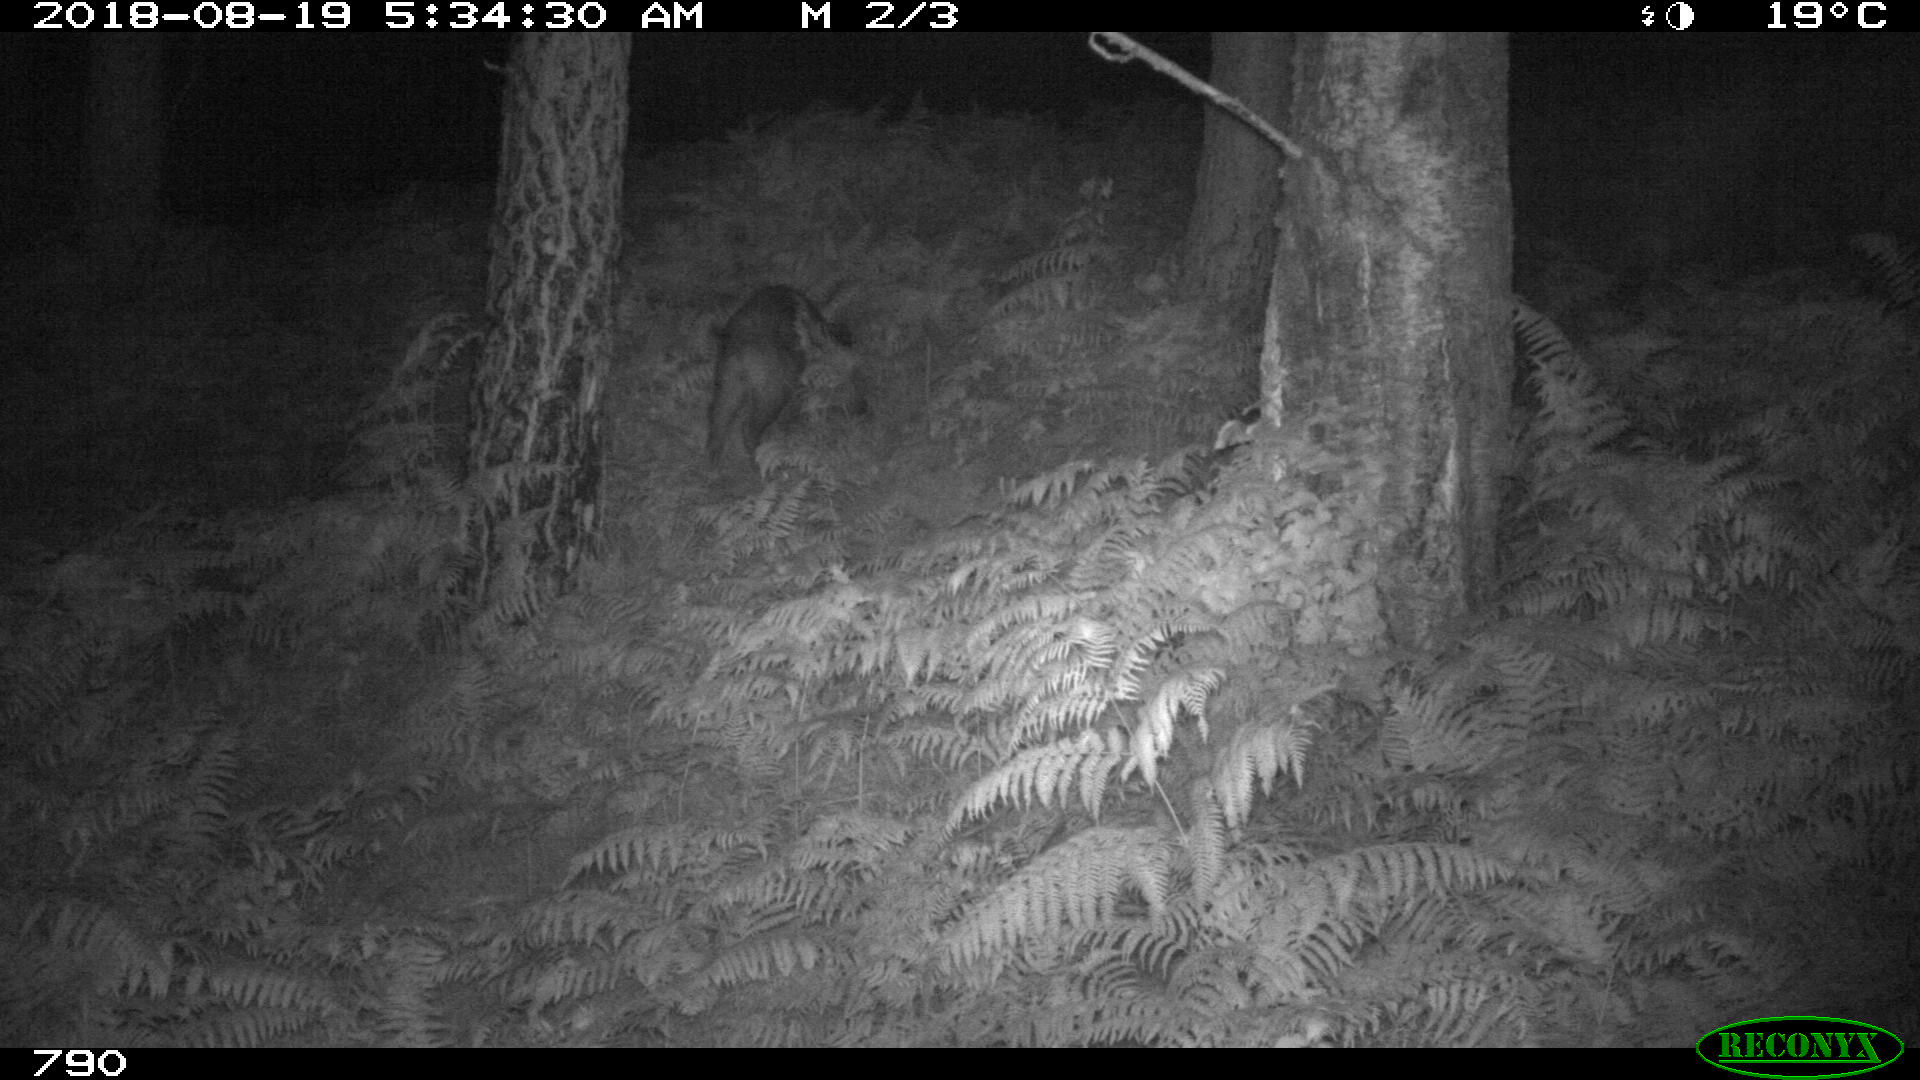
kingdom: Animalia
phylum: Chordata
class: Mammalia
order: Artiodactyla
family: Suidae
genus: Sus
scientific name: Sus scrofa
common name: Wild boar
